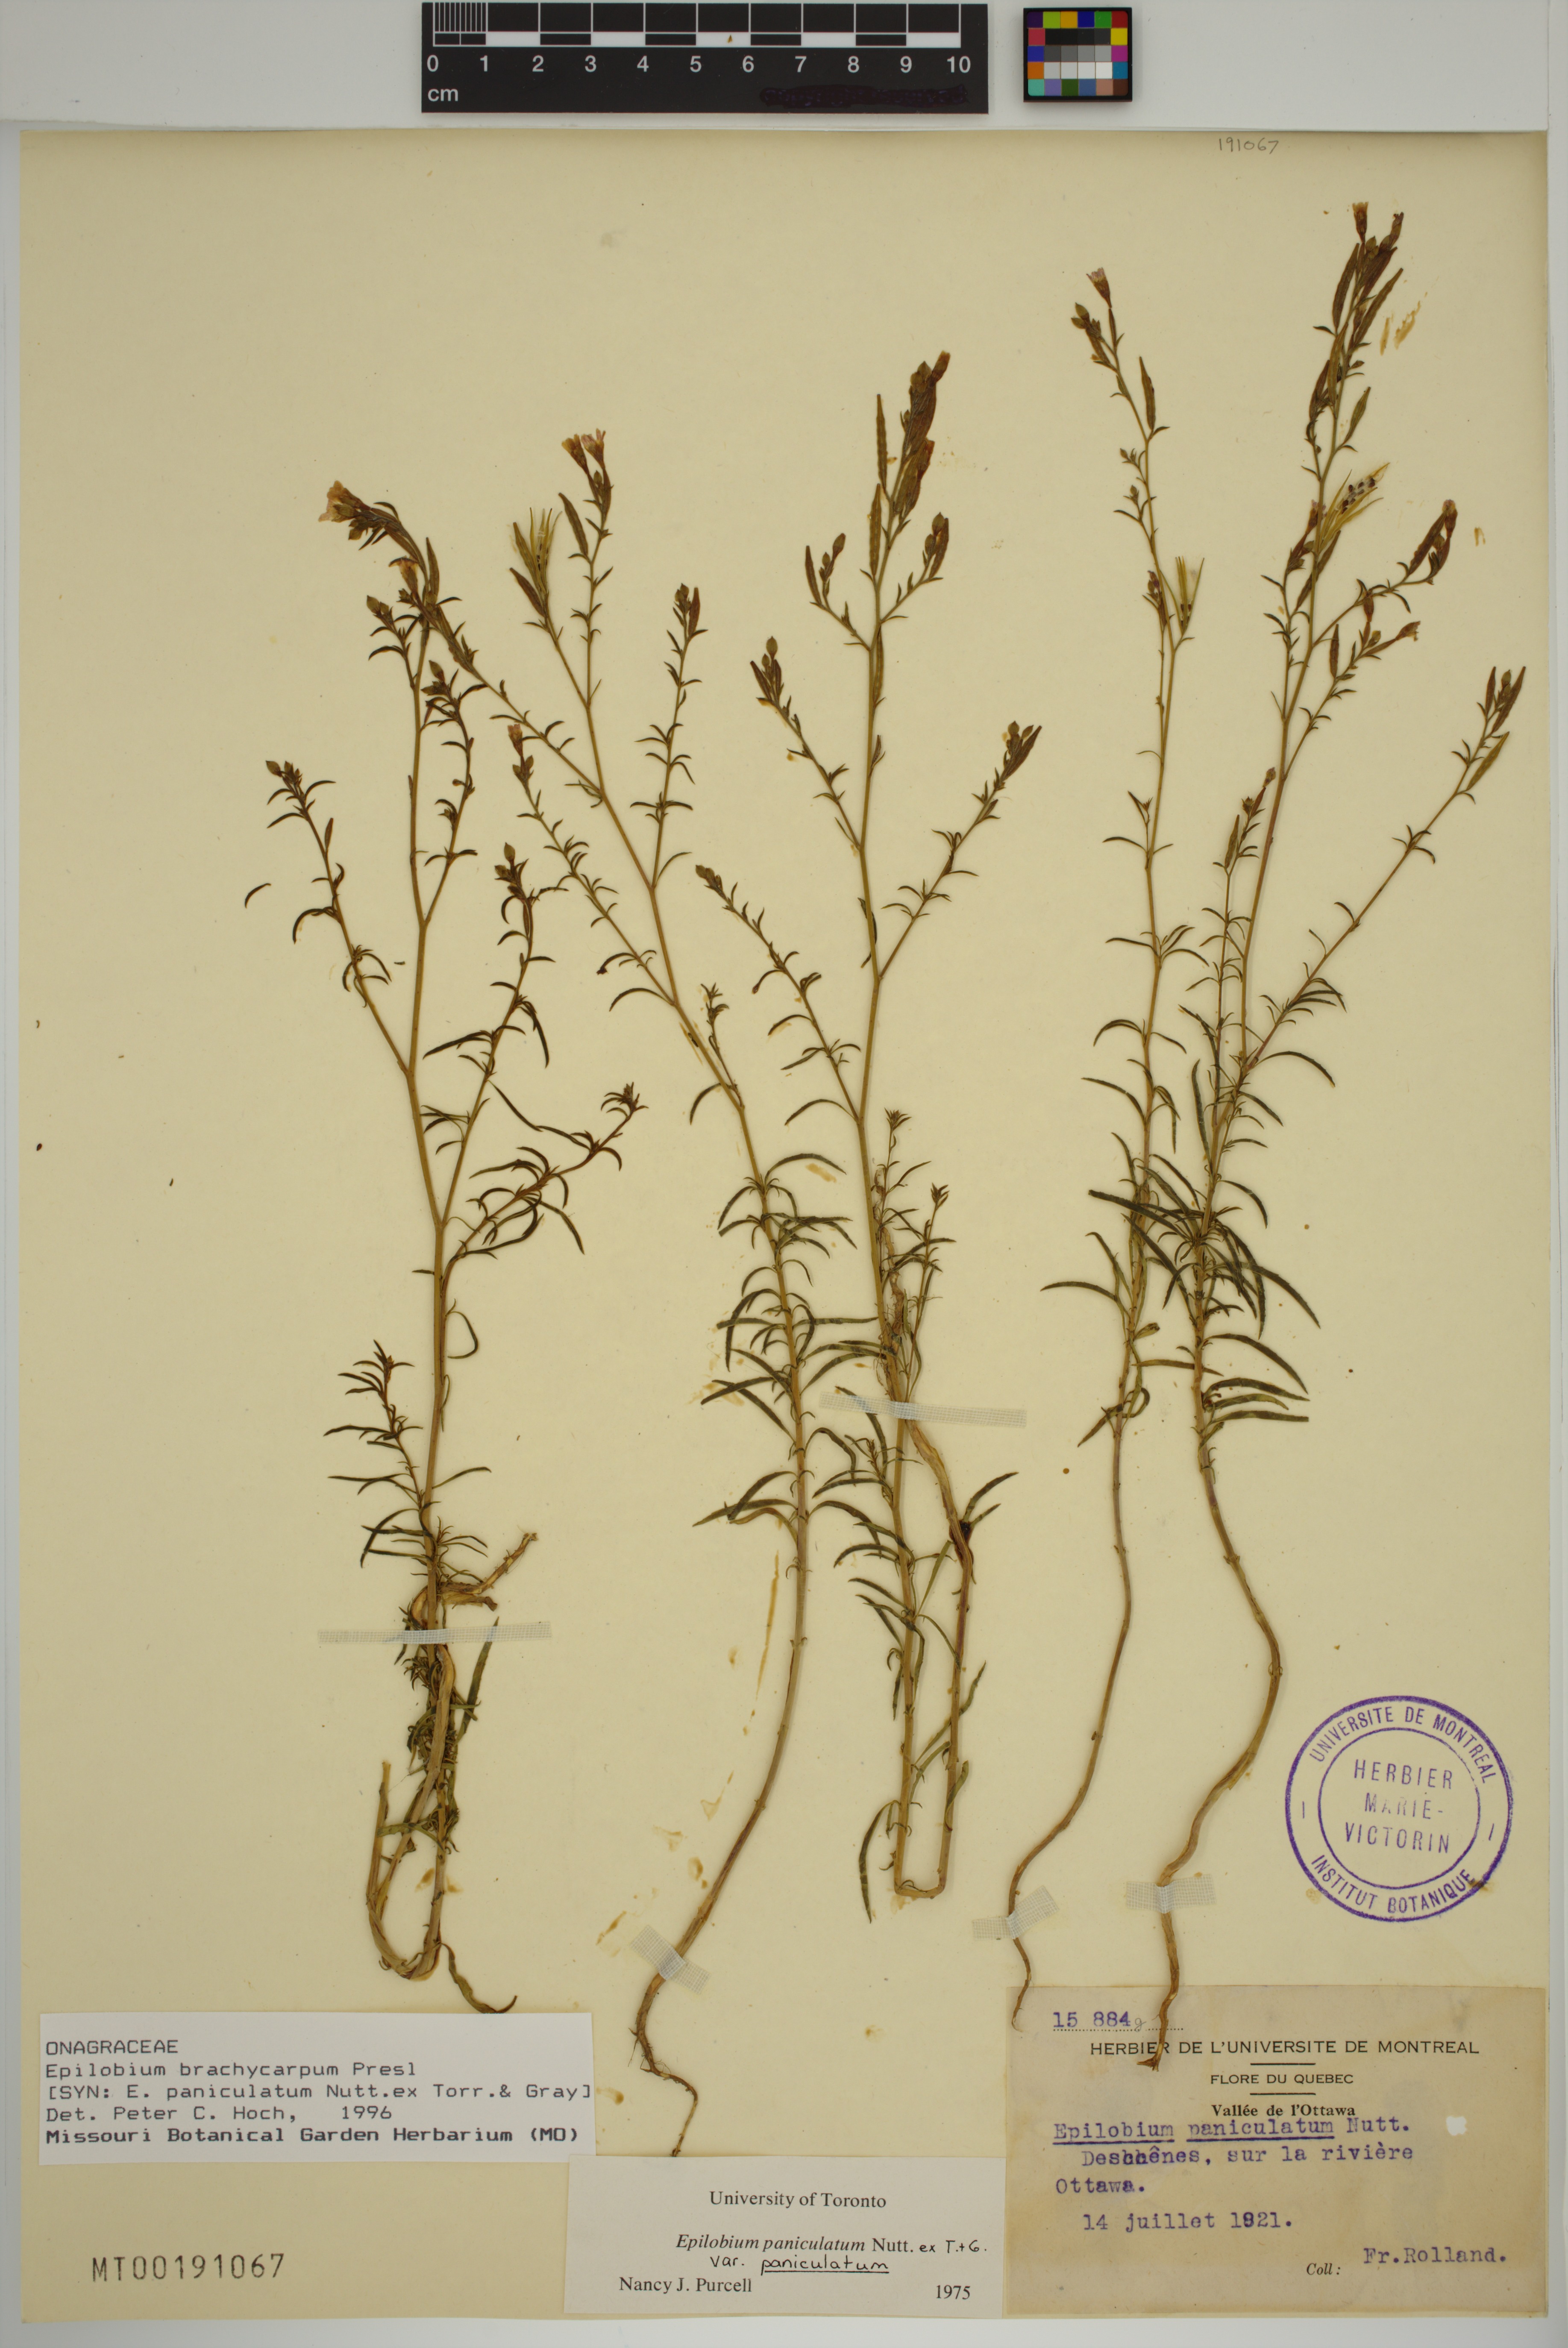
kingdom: Plantae
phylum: Tracheophyta
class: Magnoliopsida
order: Myrtales
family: Onagraceae
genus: Epilobium
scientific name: Epilobium brachycarpum
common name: Annual willowherb
